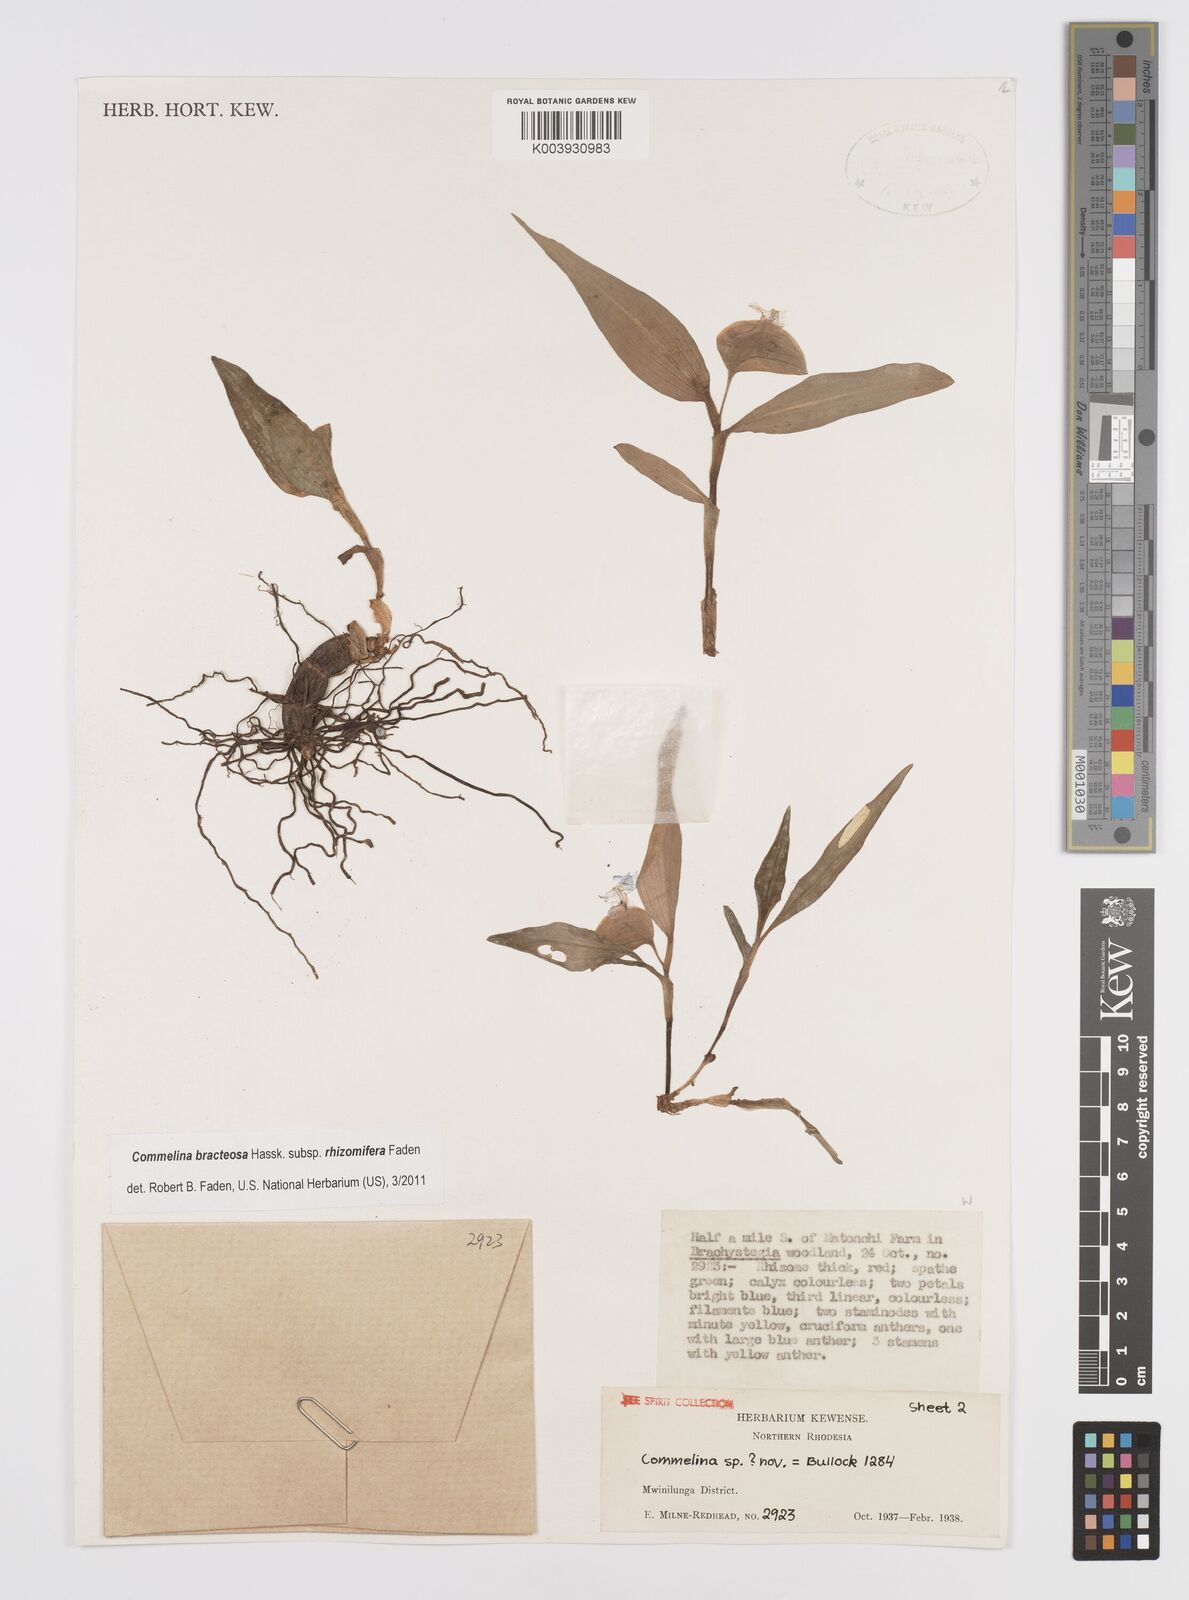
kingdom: Plantae
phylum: Tracheophyta
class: Liliopsida
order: Commelinales
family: Commelinaceae
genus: Commelina
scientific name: Commelina bracteosa
